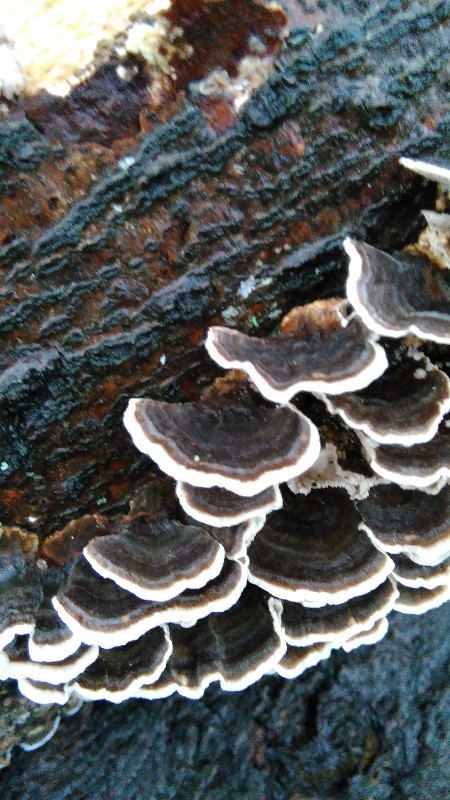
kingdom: Fungi
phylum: Basidiomycota
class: Agaricomycetes
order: Polyporales
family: Polyporaceae
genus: Trametes
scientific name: Trametes versicolor
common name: broget læderporesvamp
